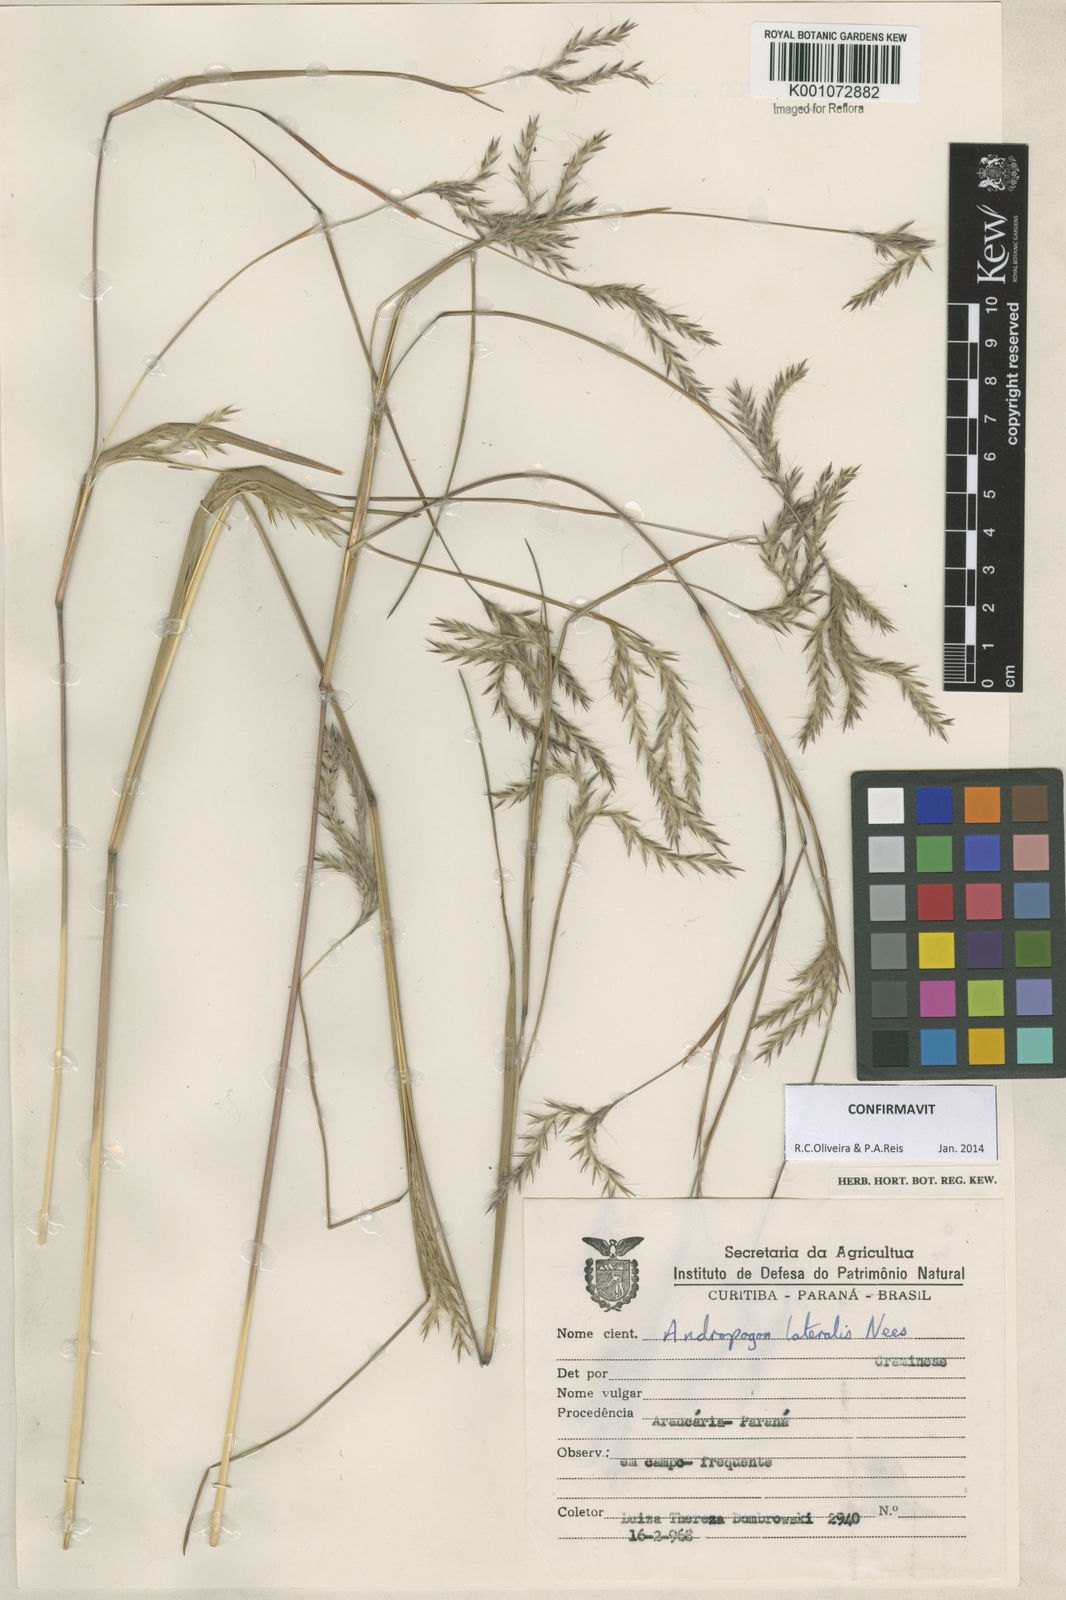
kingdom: Plantae
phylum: Tracheophyta
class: Liliopsida
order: Poales
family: Poaceae
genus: Andropogon
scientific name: Andropogon lateralis
